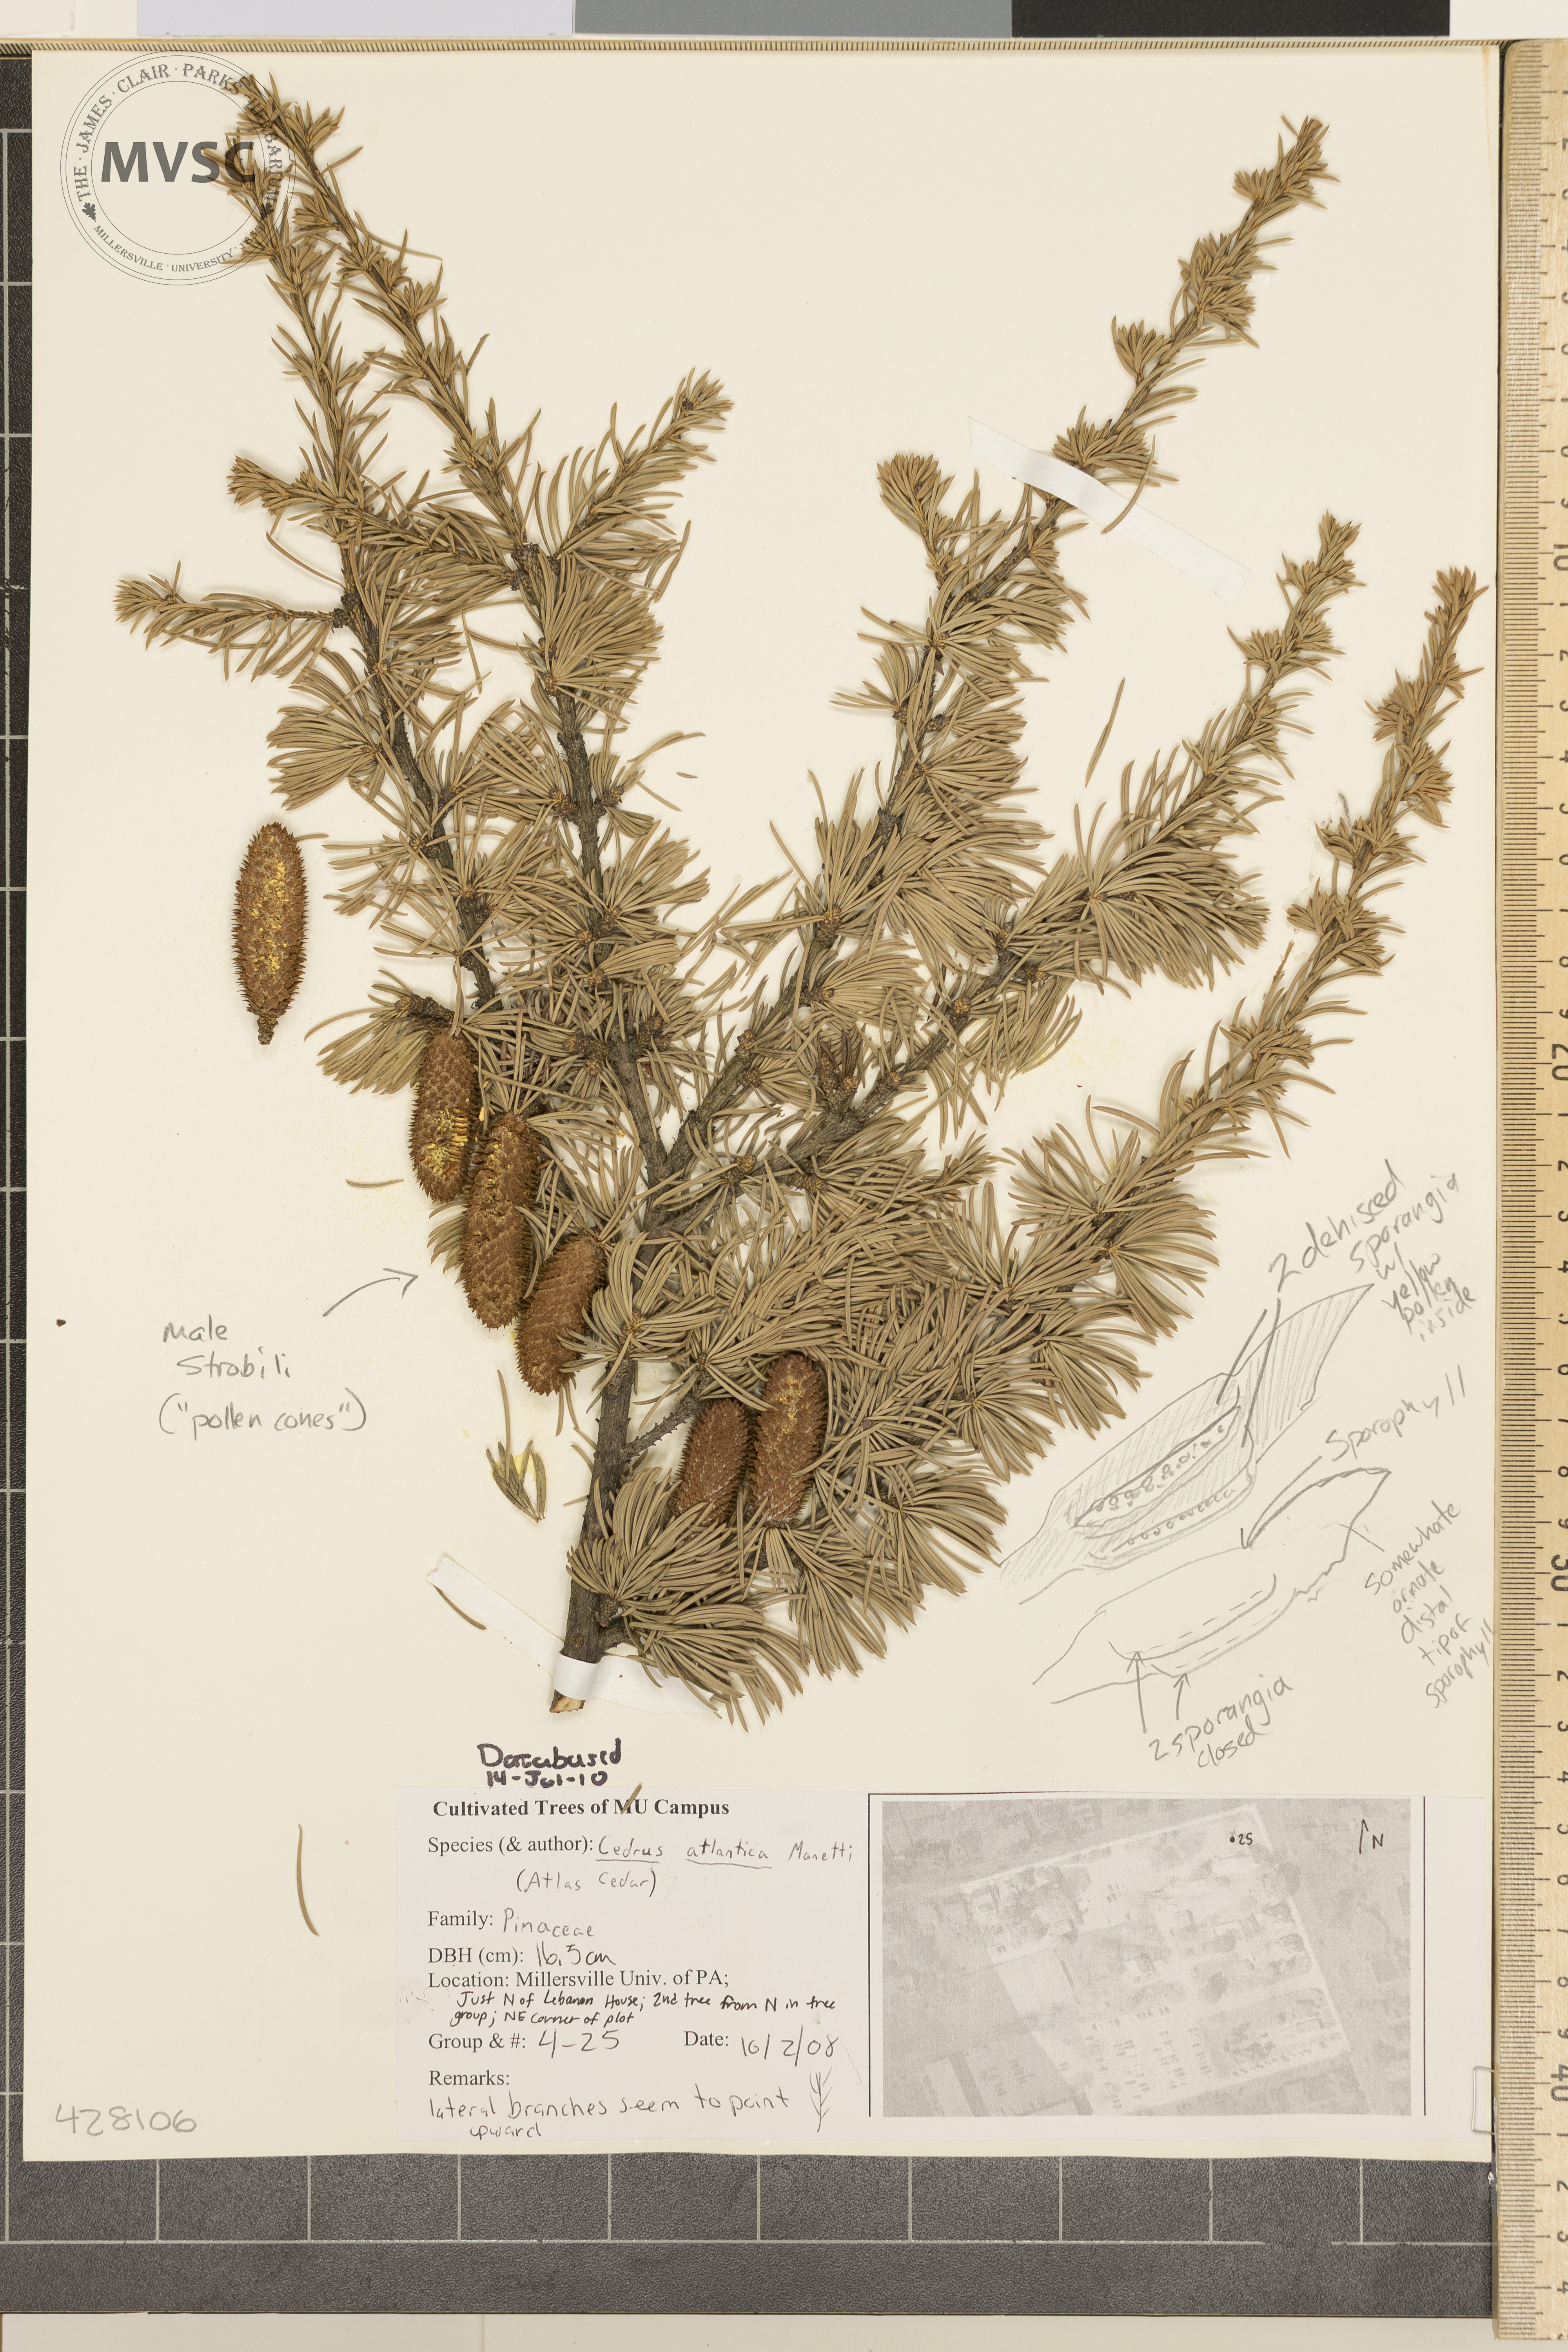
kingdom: Plantae
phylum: Tracheophyta
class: Pinopsida
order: Pinales
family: Pinaceae
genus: Cedrus
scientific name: Cedrus atlantica
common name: Atlas Cedar
